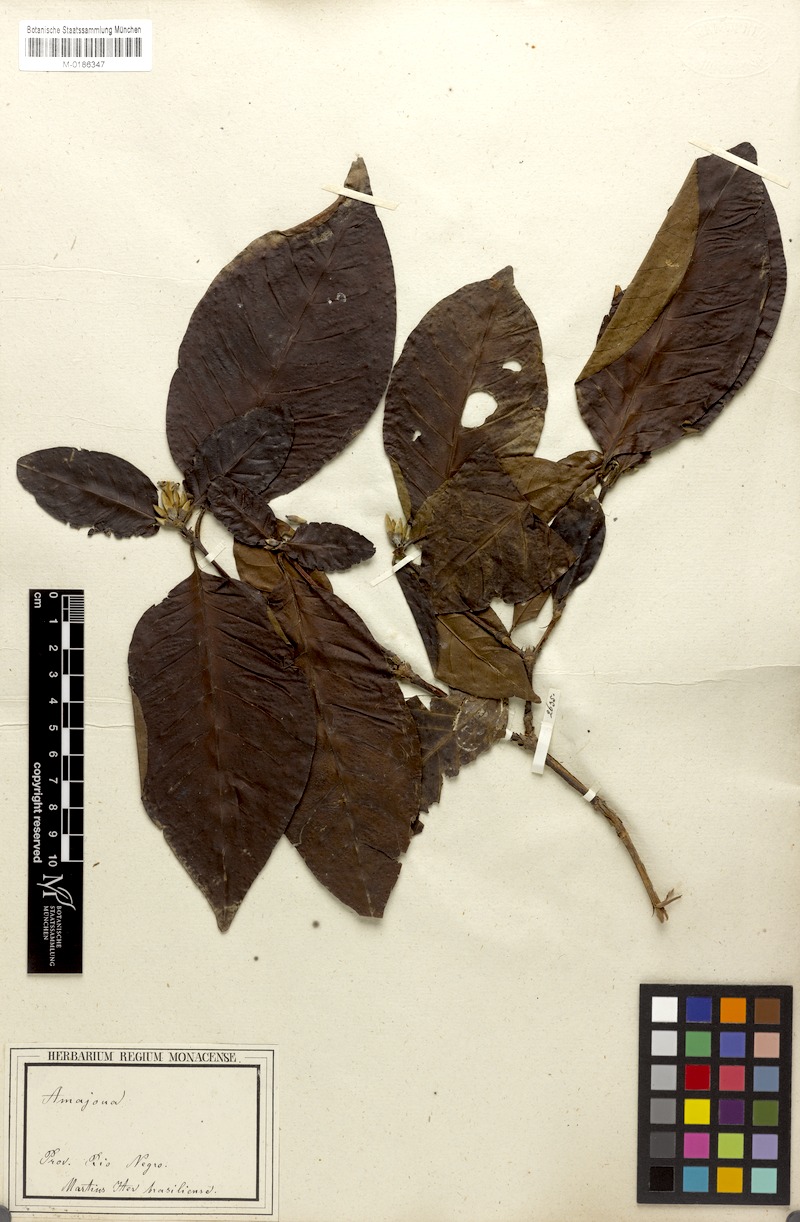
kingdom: Plantae
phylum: Tracheophyta
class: Magnoliopsida
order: Gentianales
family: Rubiaceae
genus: Alibertia
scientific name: Alibertia latifolia
